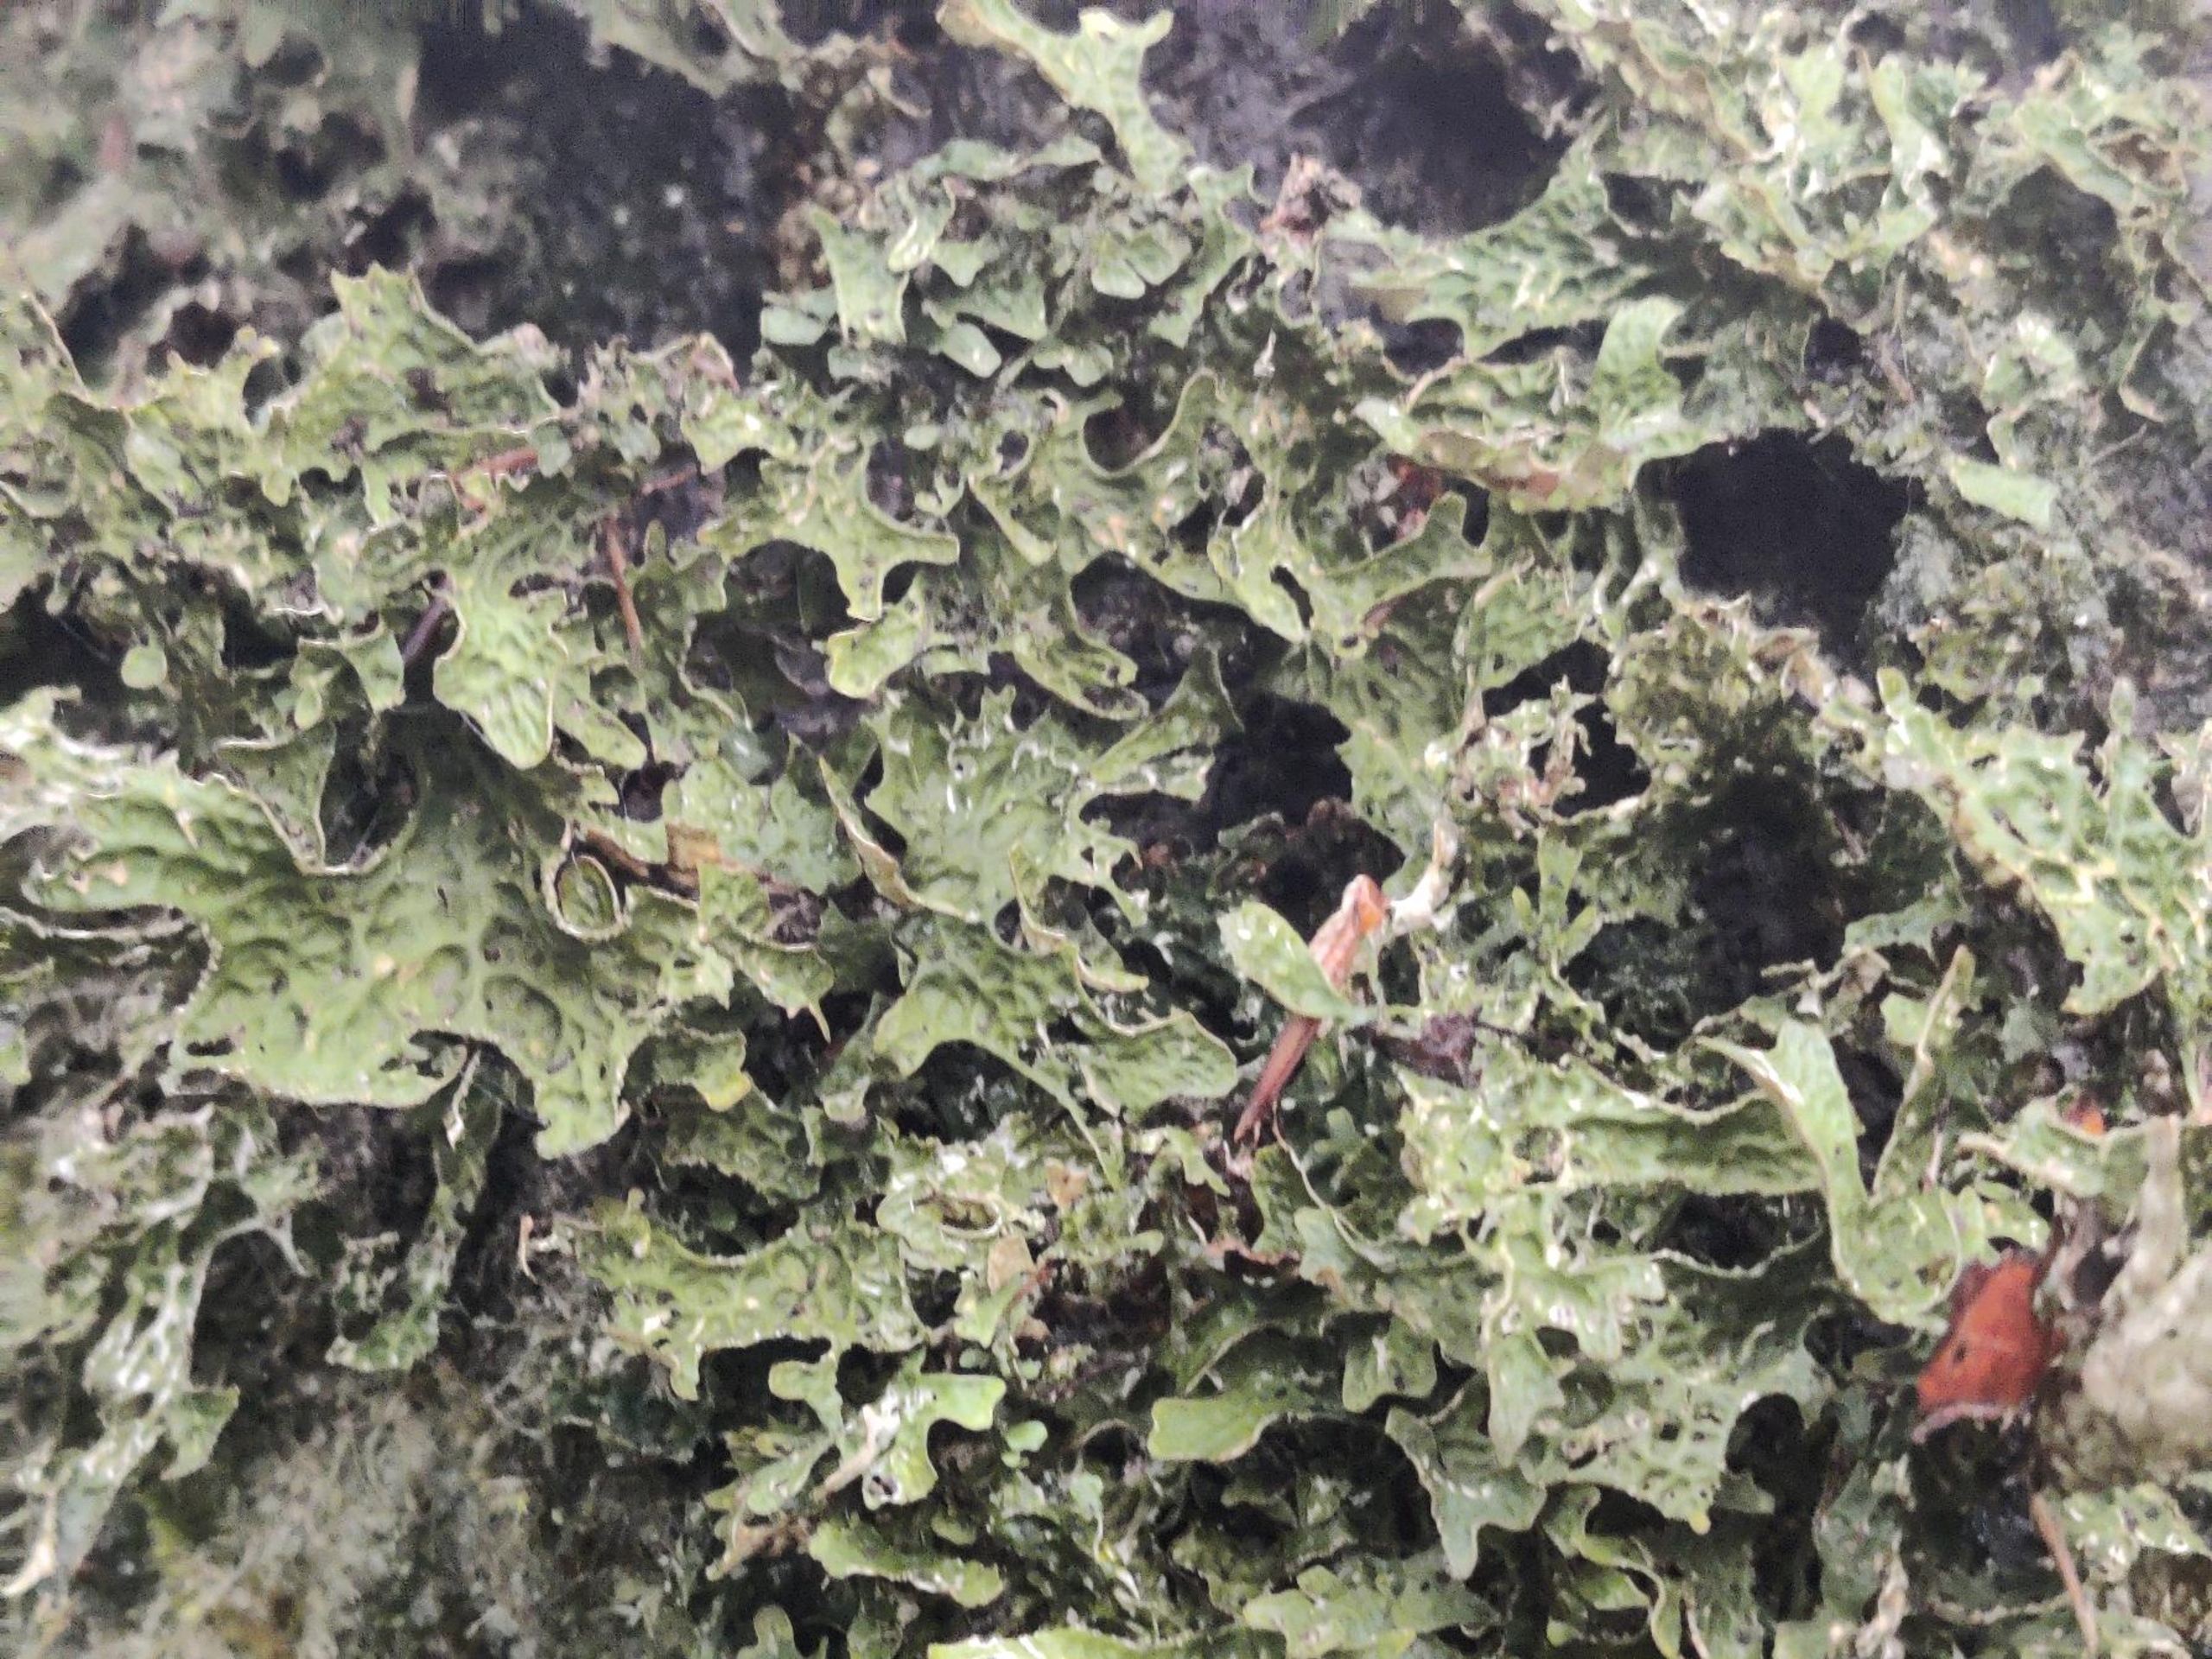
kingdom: Fungi
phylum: Ascomycota
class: Lecanoromycetes
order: Peltigerales
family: Lobariaceae
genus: Lobaria
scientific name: Lobaria pulmonaria
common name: Almindelig lungelav
